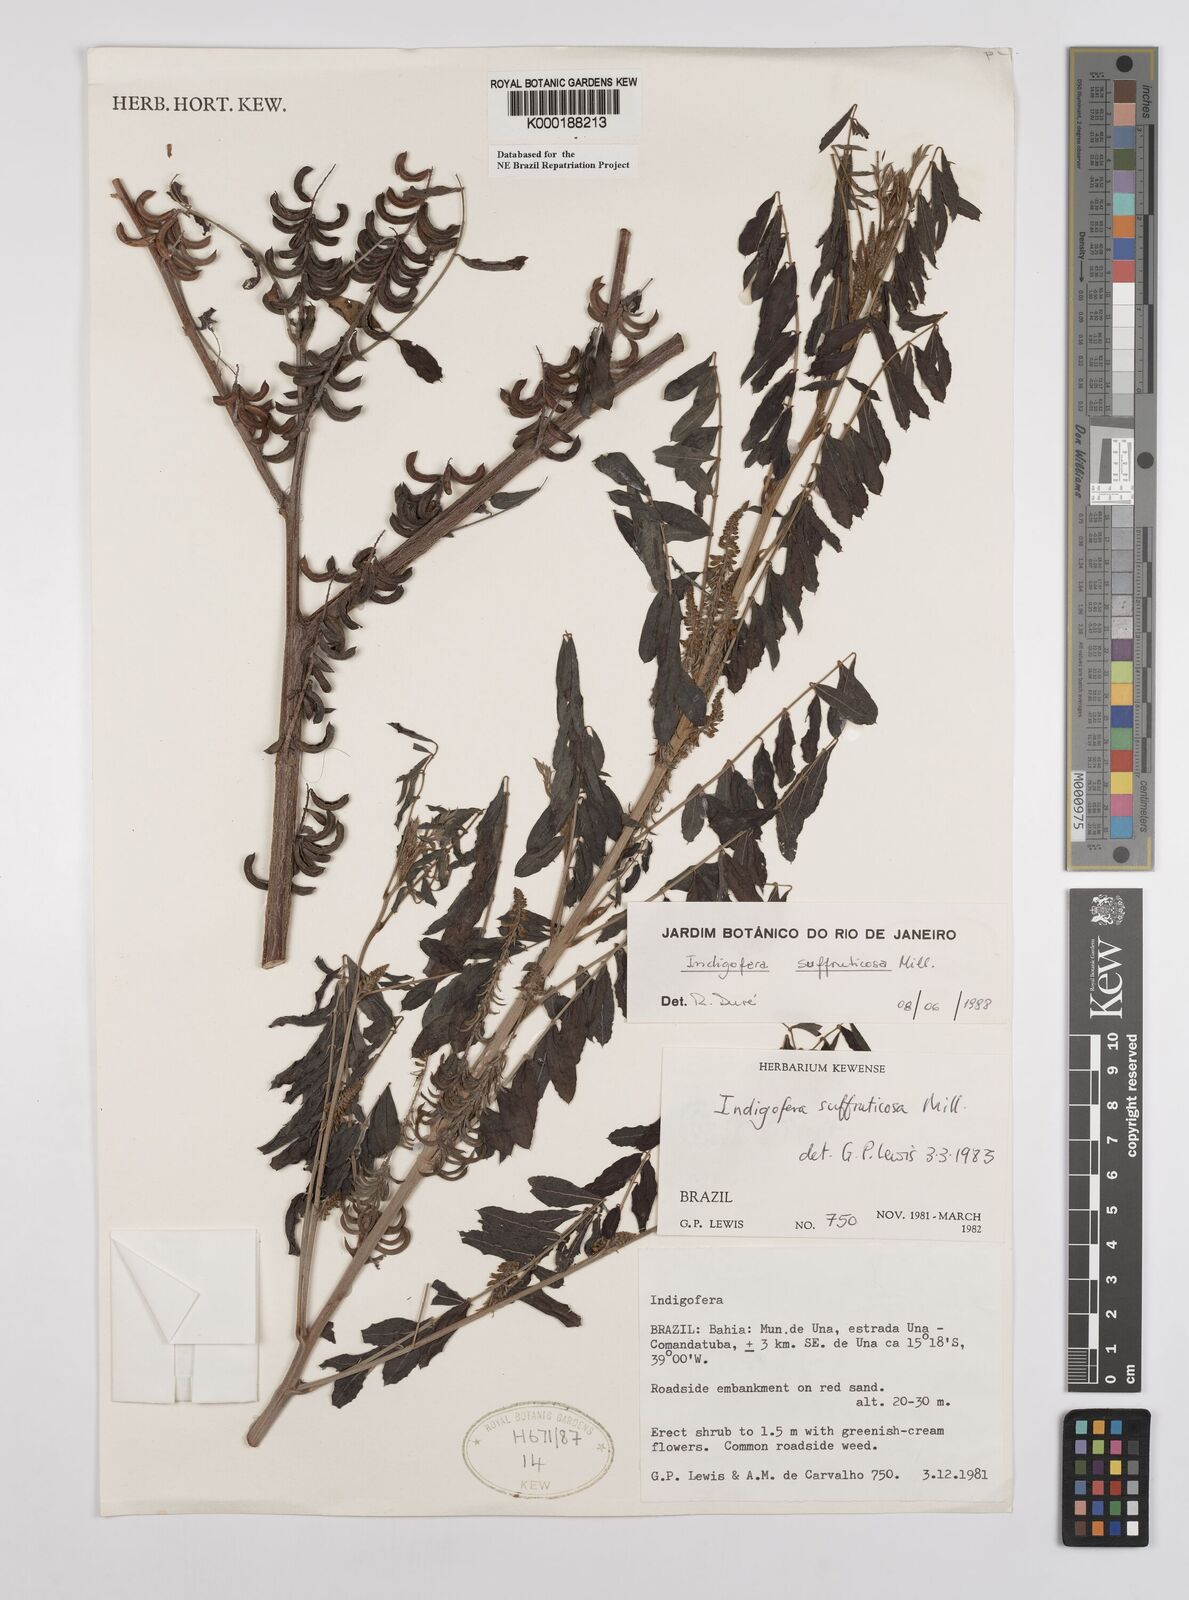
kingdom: Plantae
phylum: Tracheophyta
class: Magnoliopsida
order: Fabales
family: Fabaceae
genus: Indigofera
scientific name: Indigofera suffruticosa
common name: Anil de pasto
